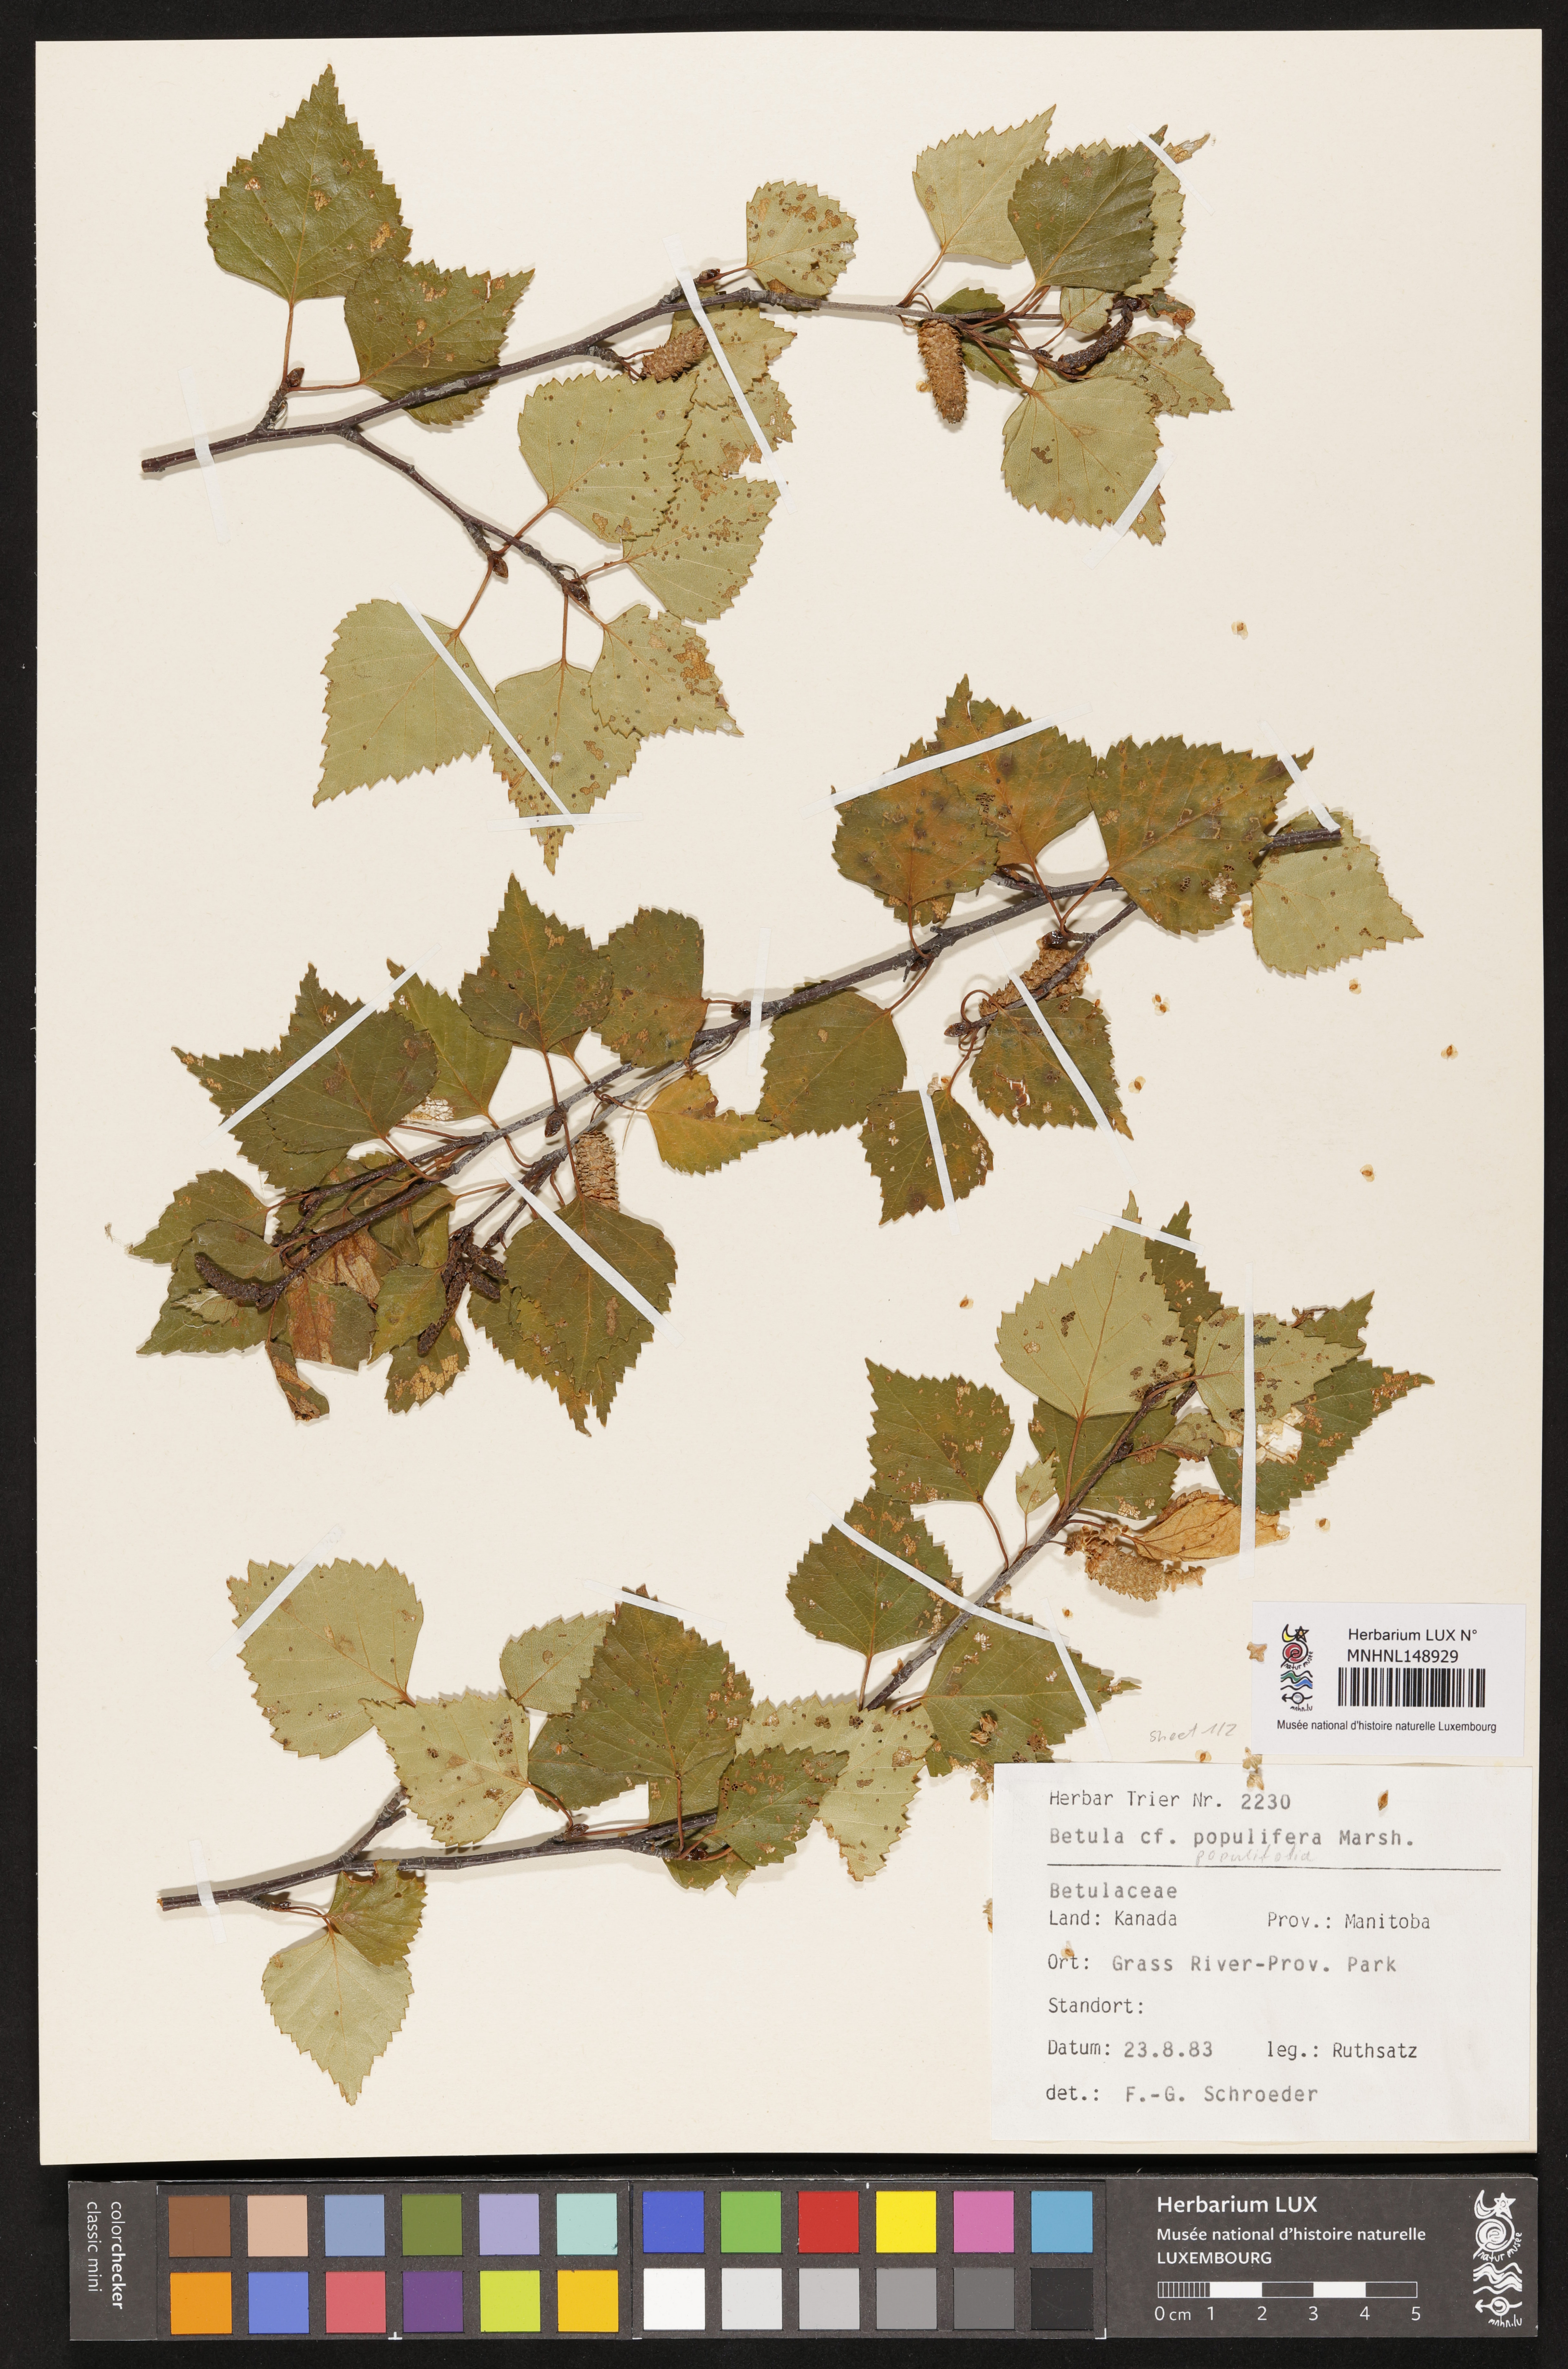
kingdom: Plantae
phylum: Tracheophyta
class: Magnoliopsida
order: Fagales
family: Betulaceae
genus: Betula
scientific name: Betula populifolia
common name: Fire birch
